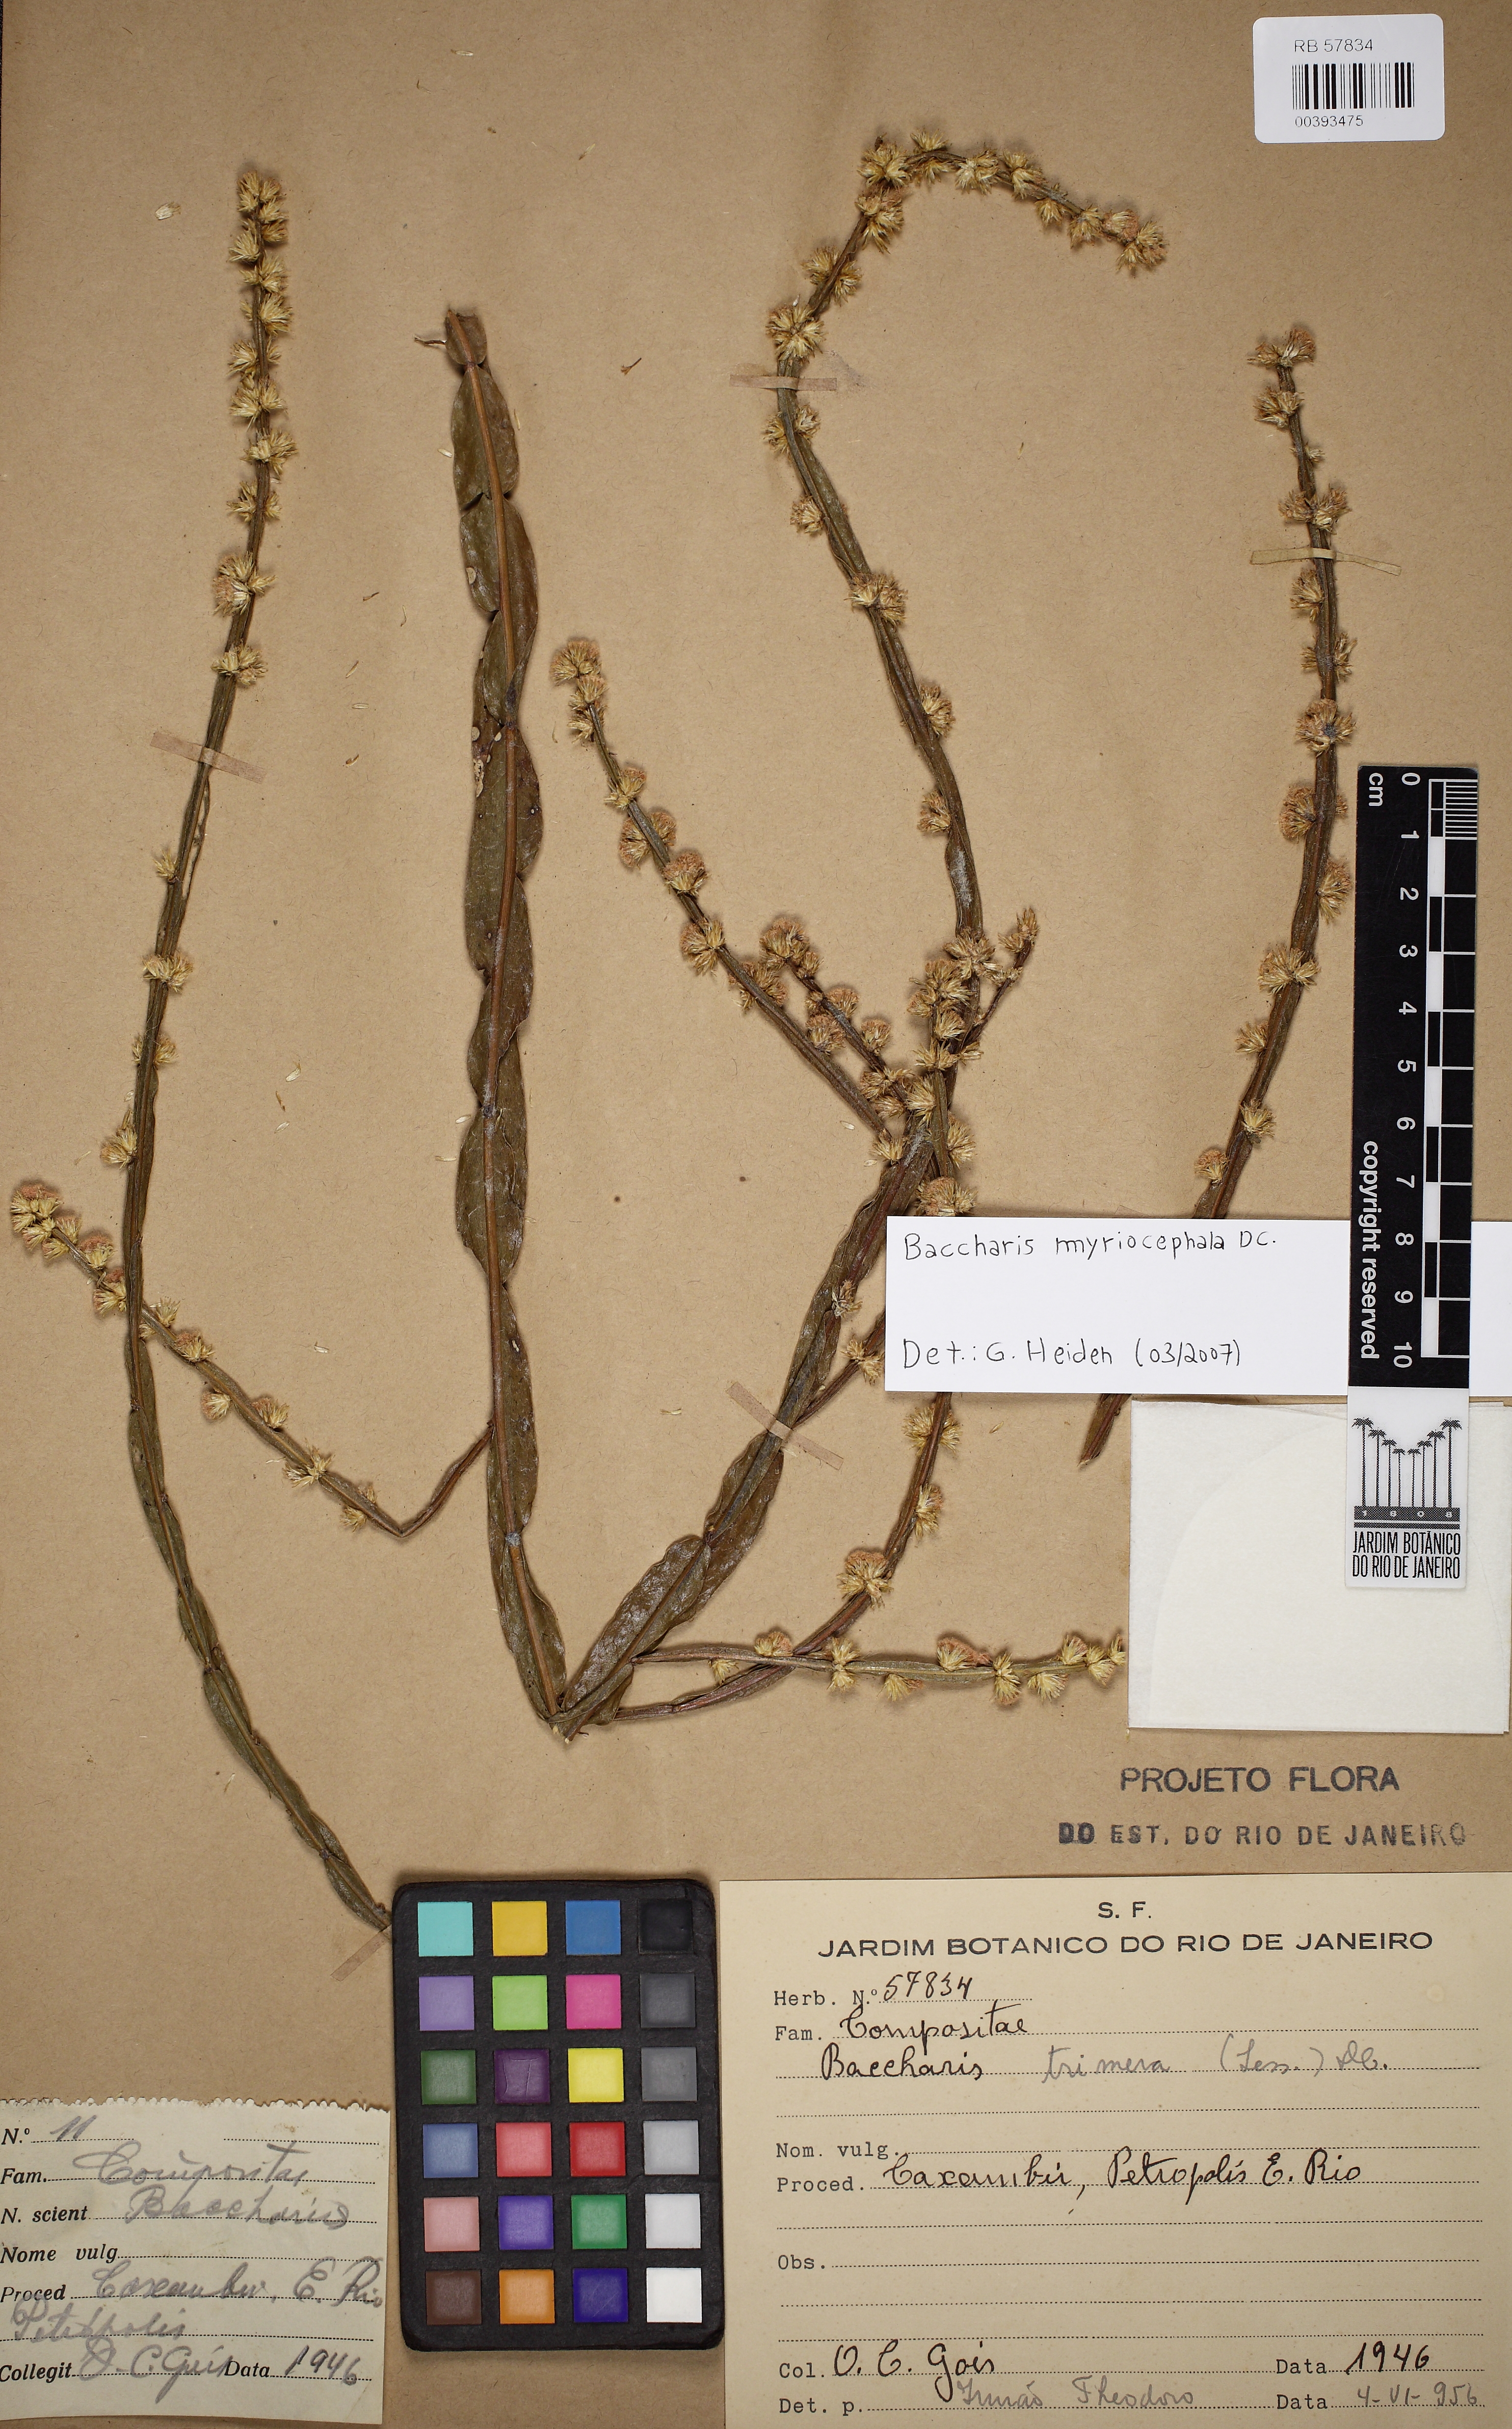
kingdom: Plantae
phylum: Tracheophyta
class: Magnoliopsida
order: Asterales
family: Asteraceae
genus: Baccharis
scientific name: Baccharis myriocephala
